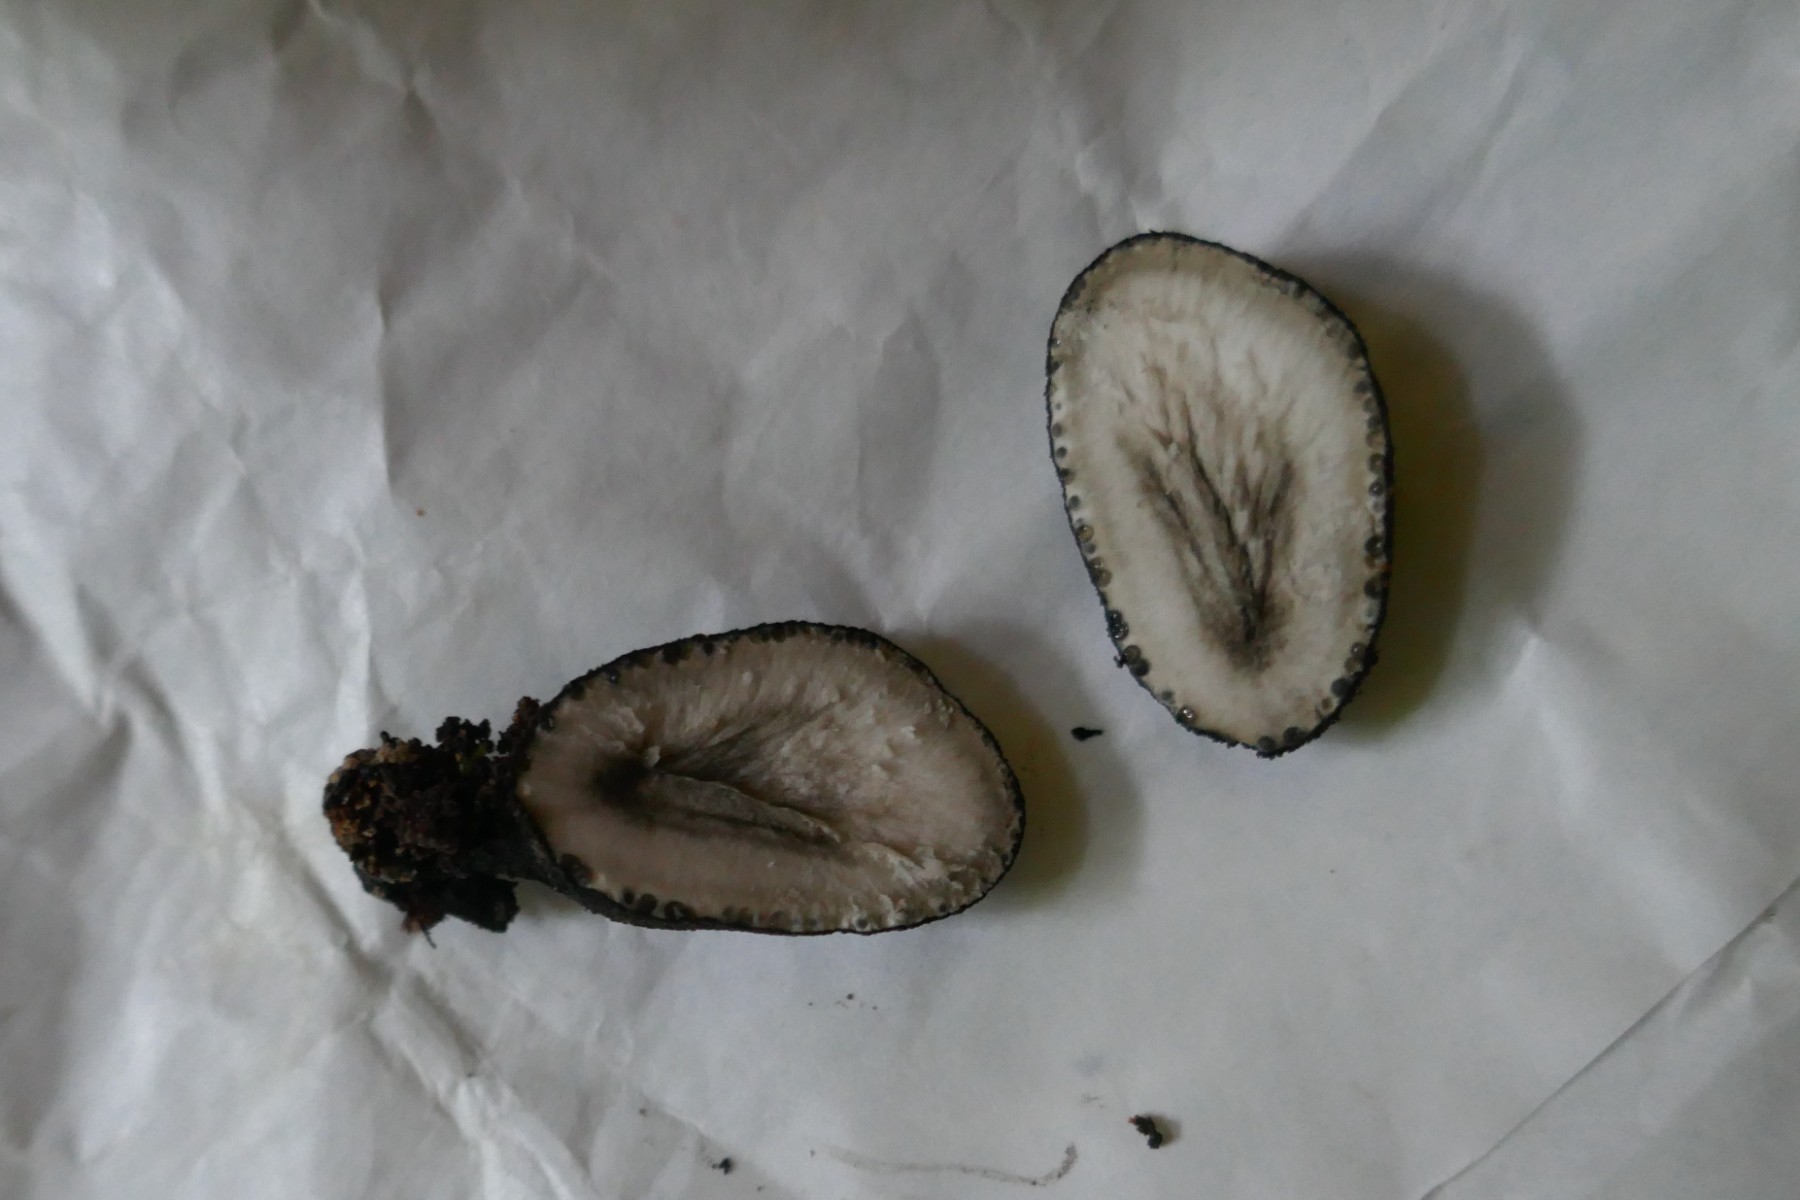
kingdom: Fungi
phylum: Ascomycota
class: Sordariomycetes
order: Xylariales
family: Xylariaceae
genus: Xylaria
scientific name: Xylaria polymorpha
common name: kølle-stødsvamp
